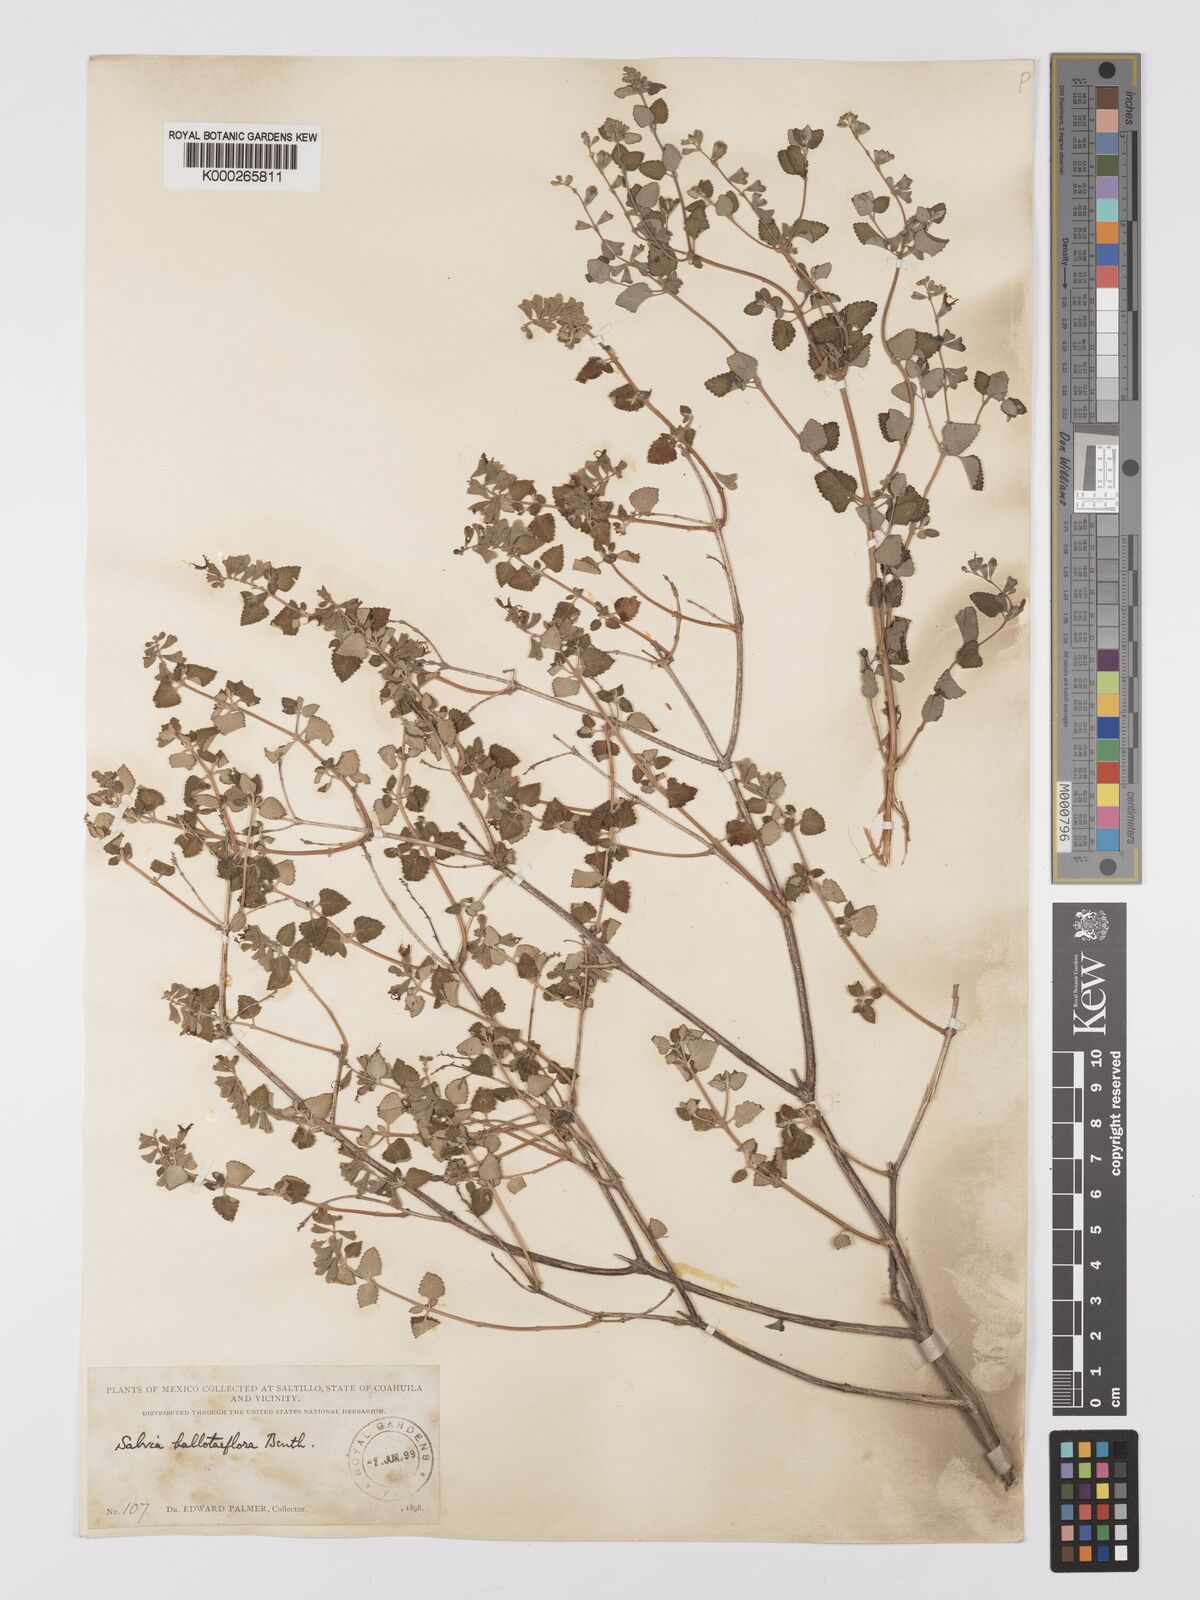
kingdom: Plantae
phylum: Tracheophyta
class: Magnoliopsida
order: Lamiales
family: Lamiaceae
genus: Salvia
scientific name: Salvia ballotiflora
